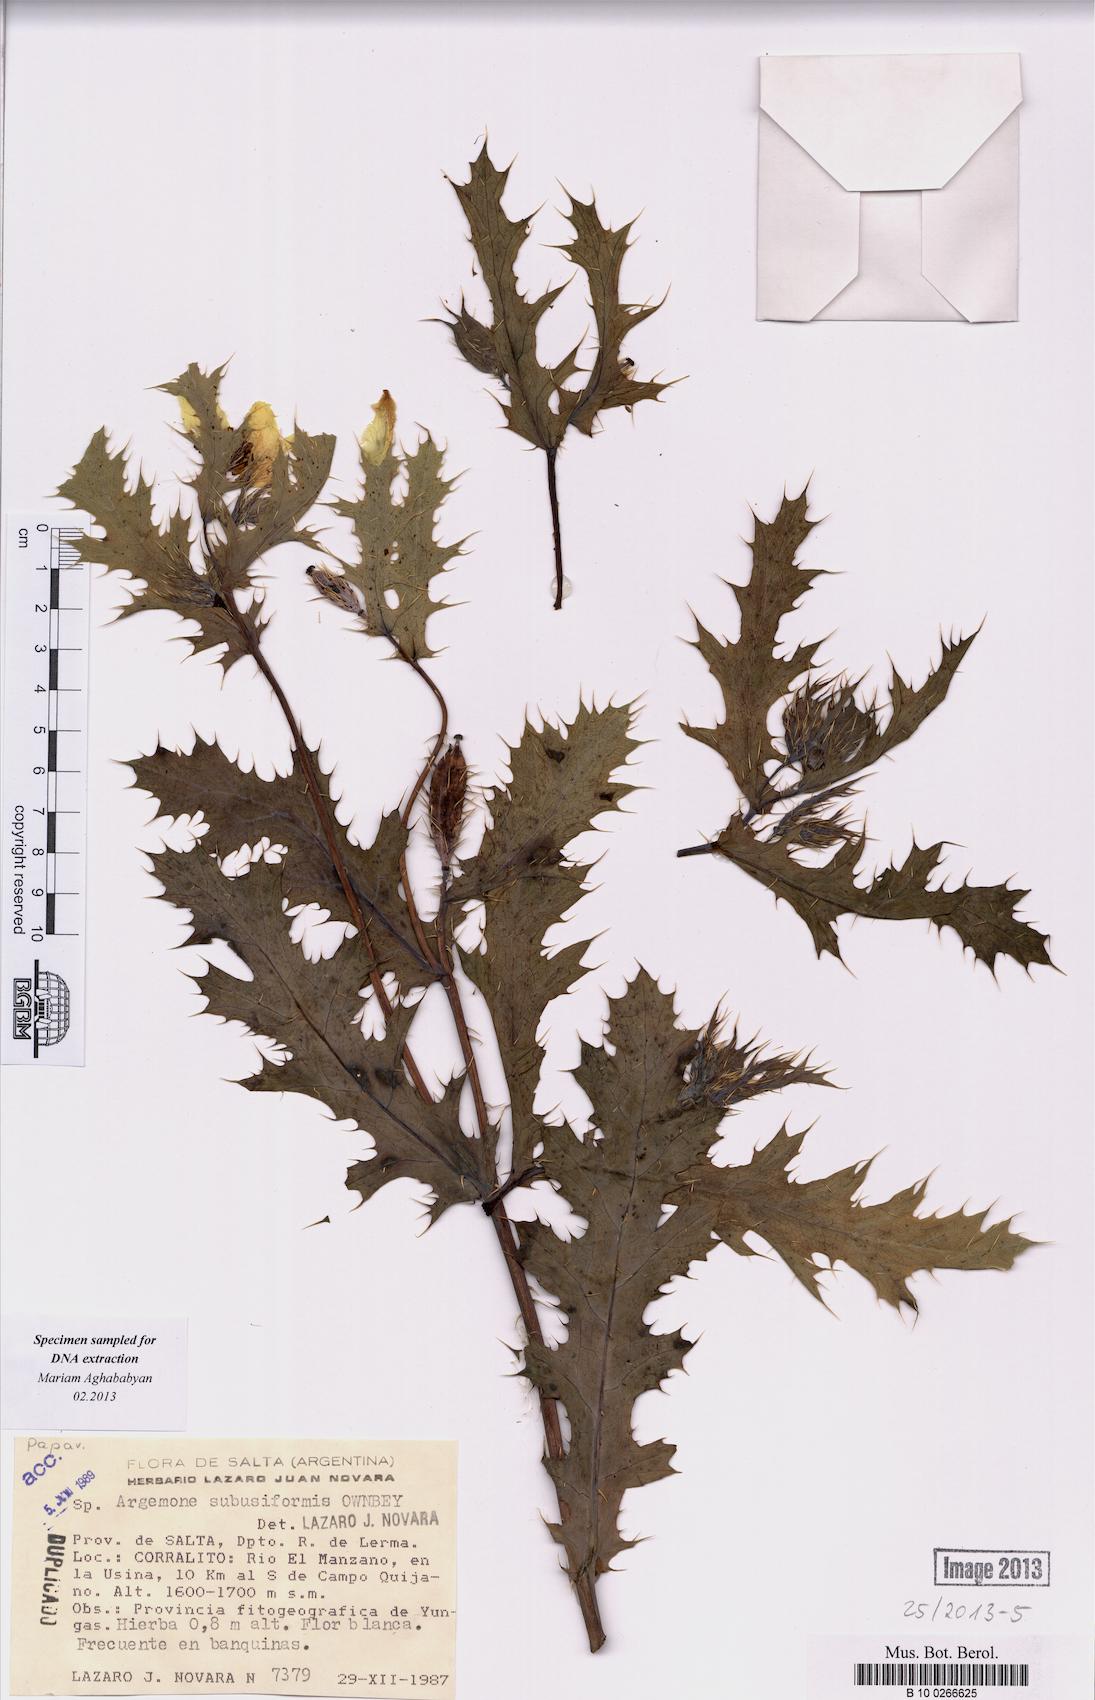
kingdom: Plantae
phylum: Tracheophyta
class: Magnoliopsida
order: Ranunculales
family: Papaveraceae
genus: Argemone
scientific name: Argemone subfusiformis
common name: American-poppy
